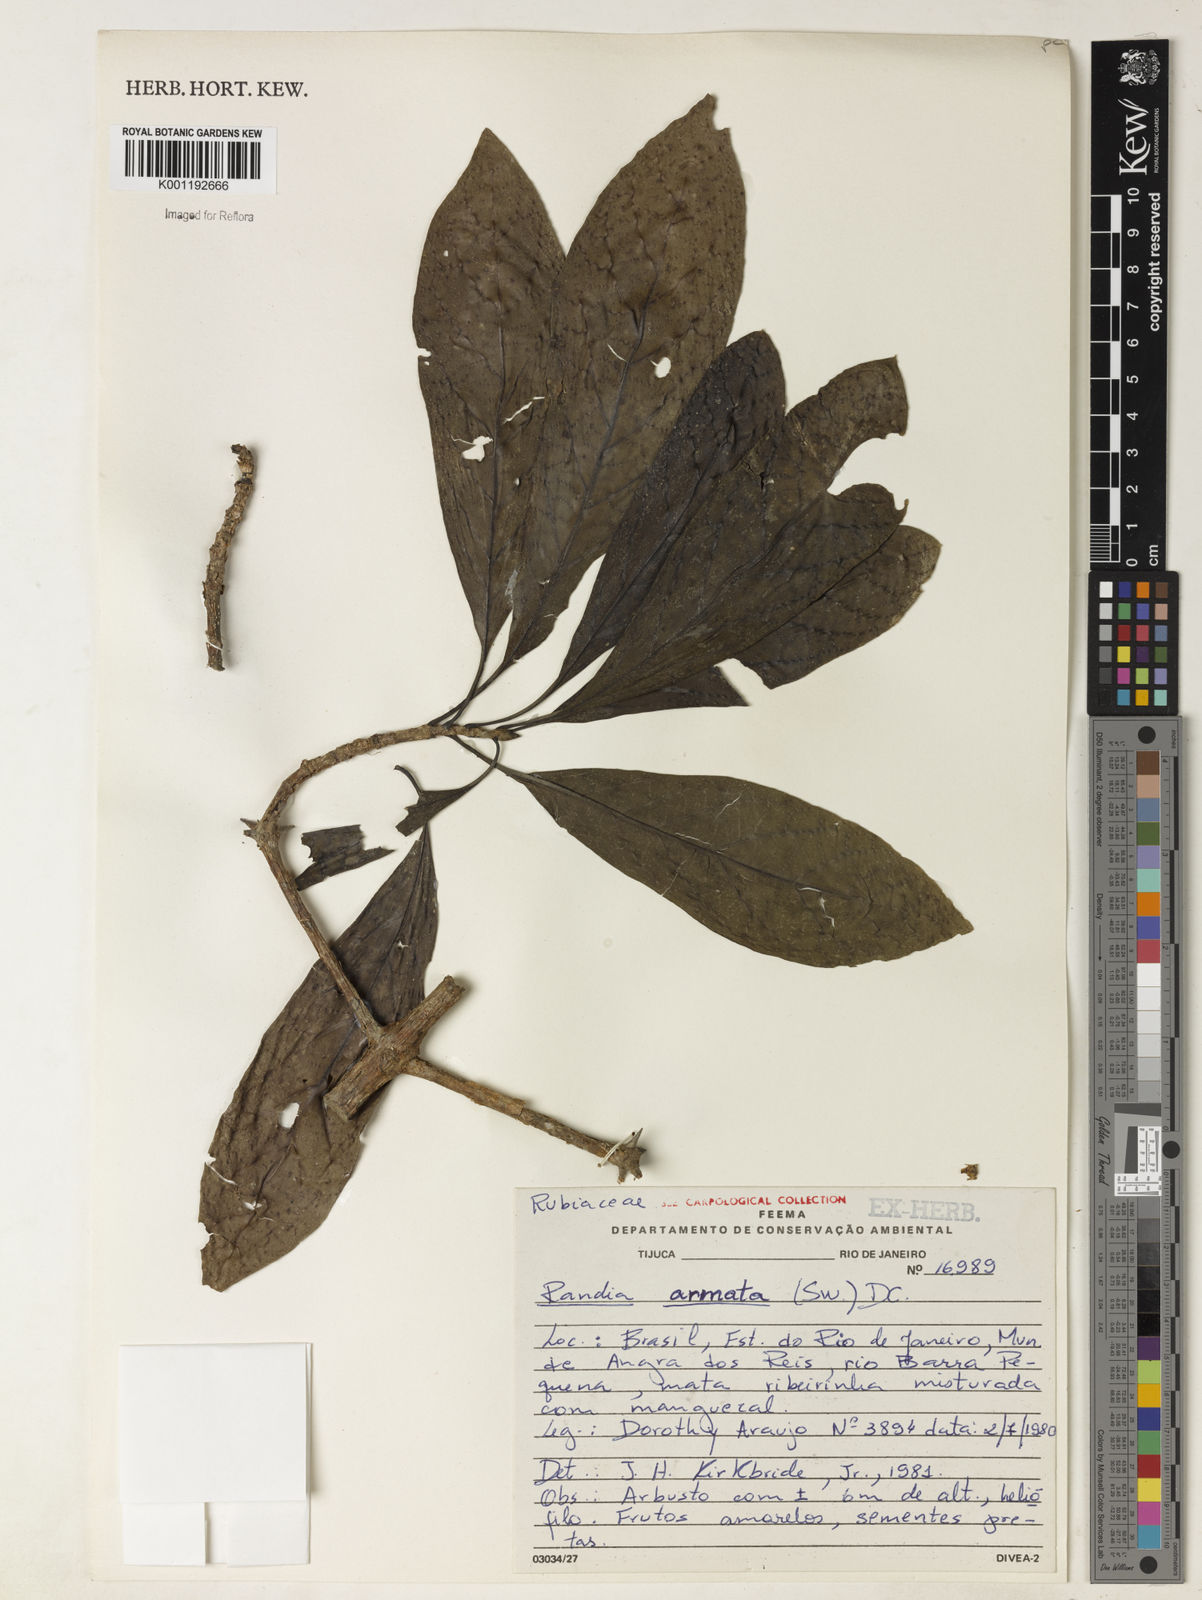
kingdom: Plantae
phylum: Tracheophyta
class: Magnoliopsida
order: Gentianales
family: Rubiaceae
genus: Randia
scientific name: Randia armata
